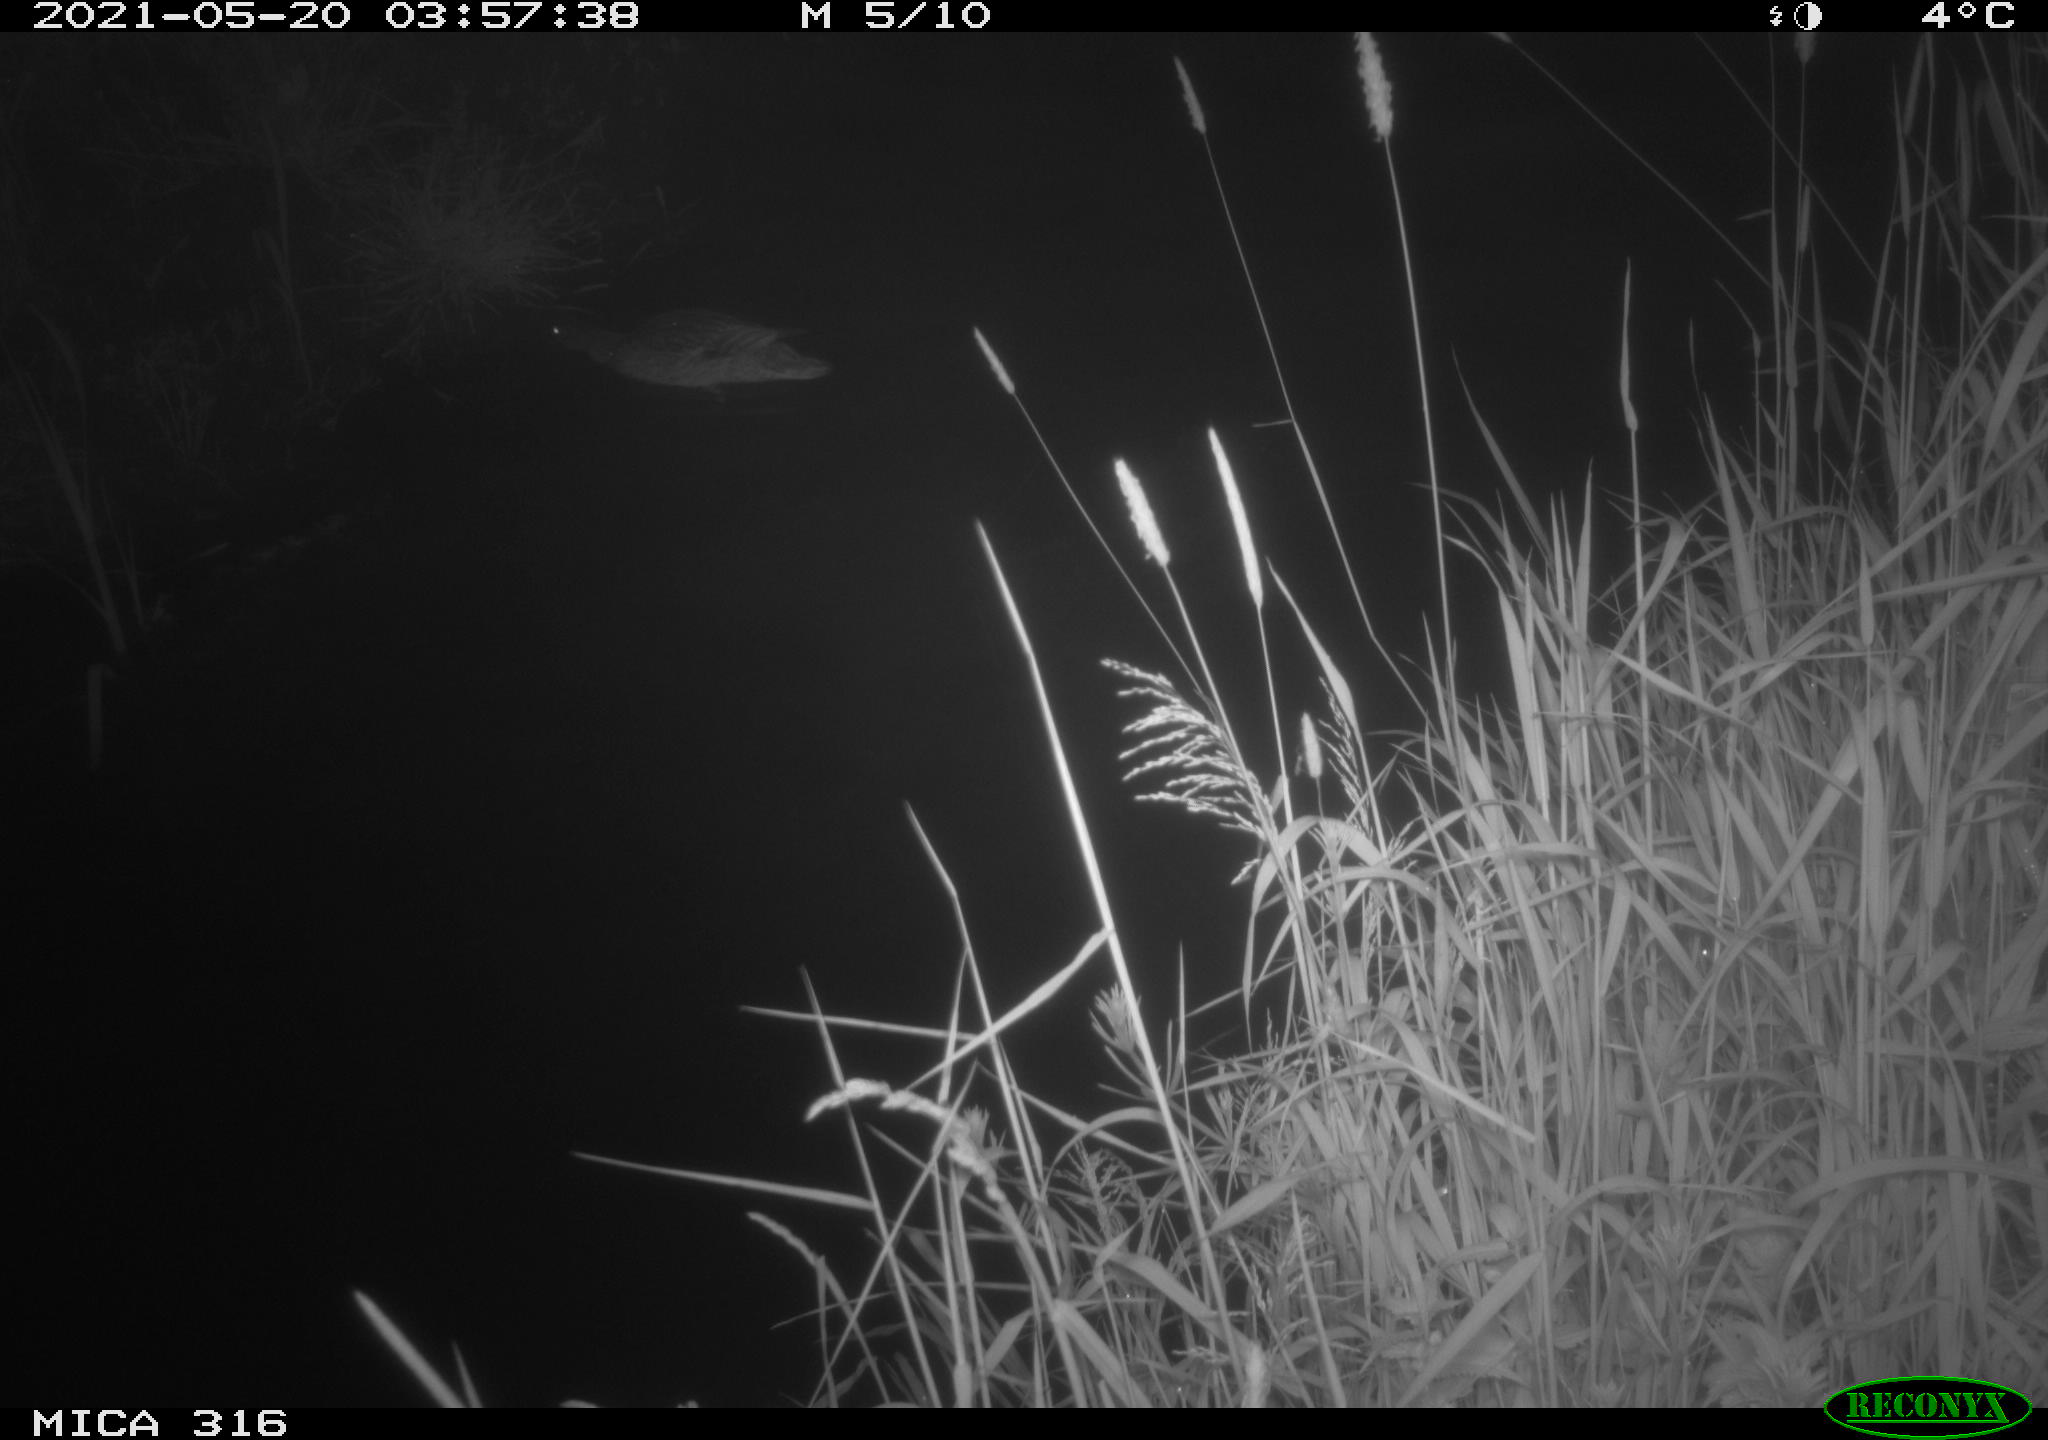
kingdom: Animalia
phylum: Chordata
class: Aves
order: Anseriformes
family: Anatidae
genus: Anas
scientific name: Anas platyrhynchos
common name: Mallard
